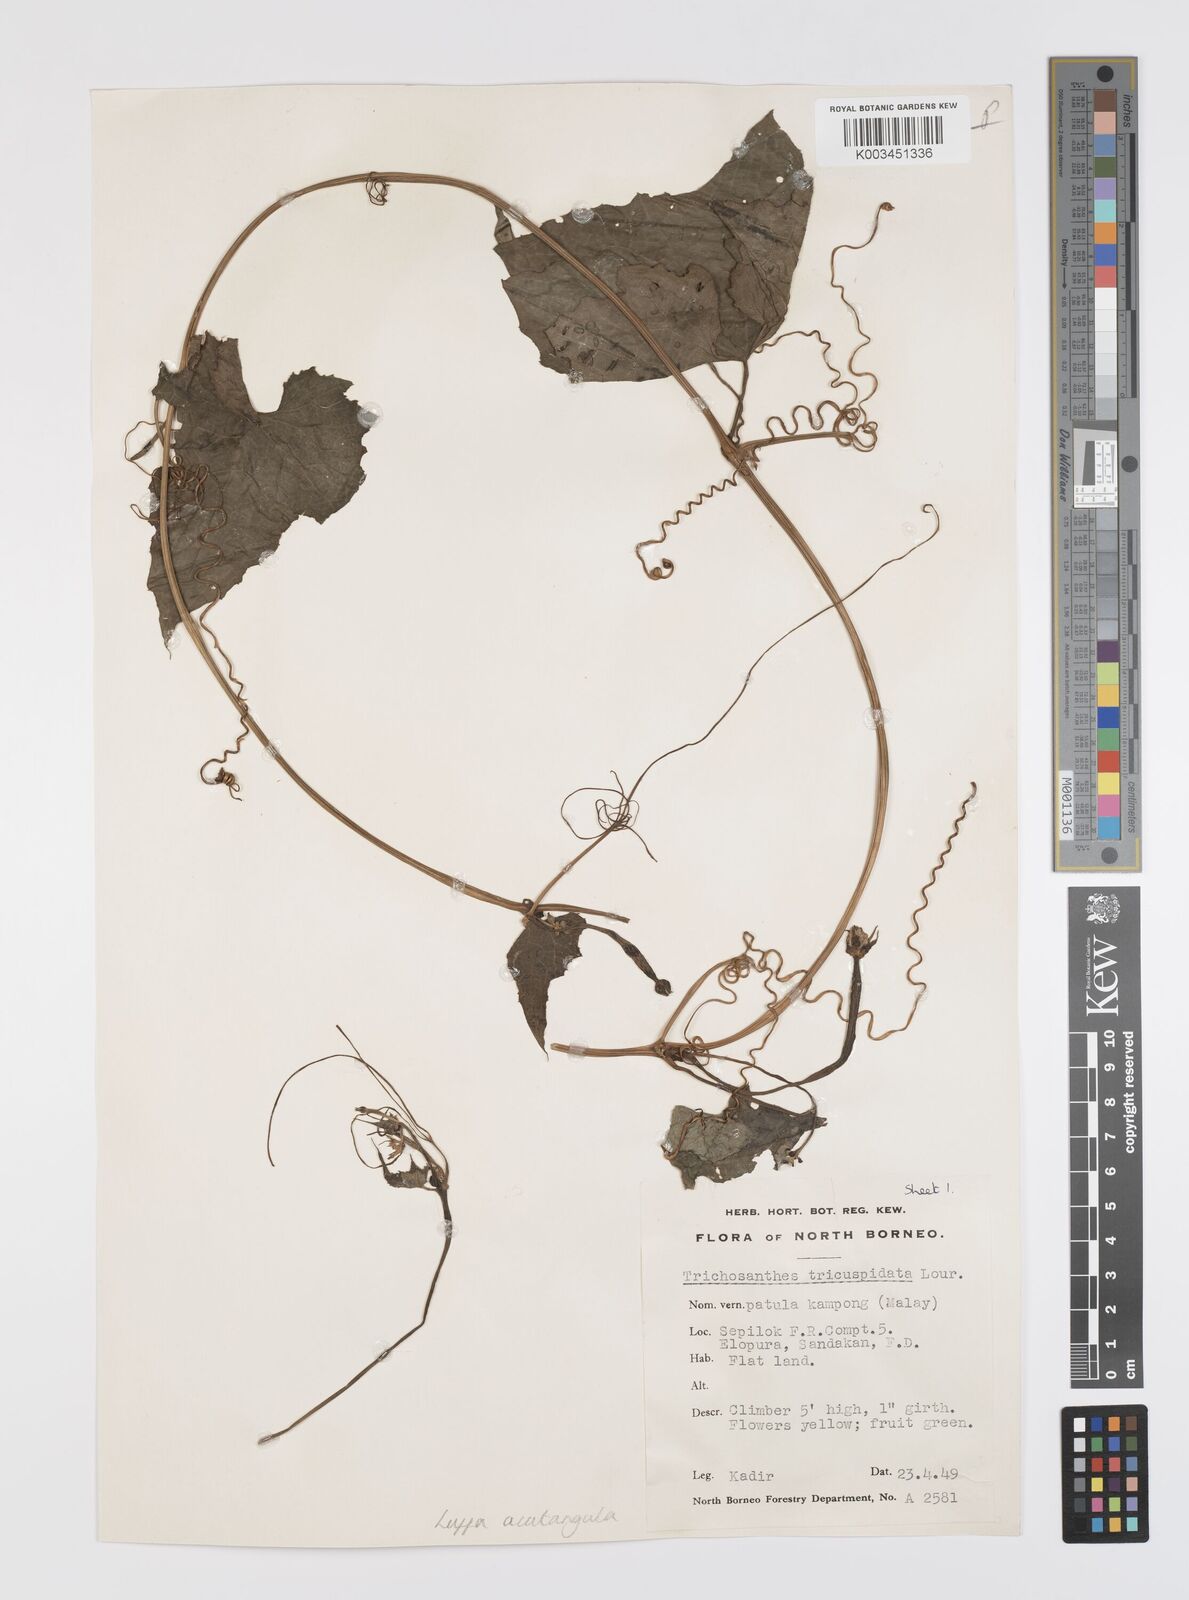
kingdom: Plantae
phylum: Tracheophyta
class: Magnoliopsida
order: Cucurbitales
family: Cucurbitaceae
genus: Luffa
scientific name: Luffa acutangula
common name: Sinkwa towelsponge
